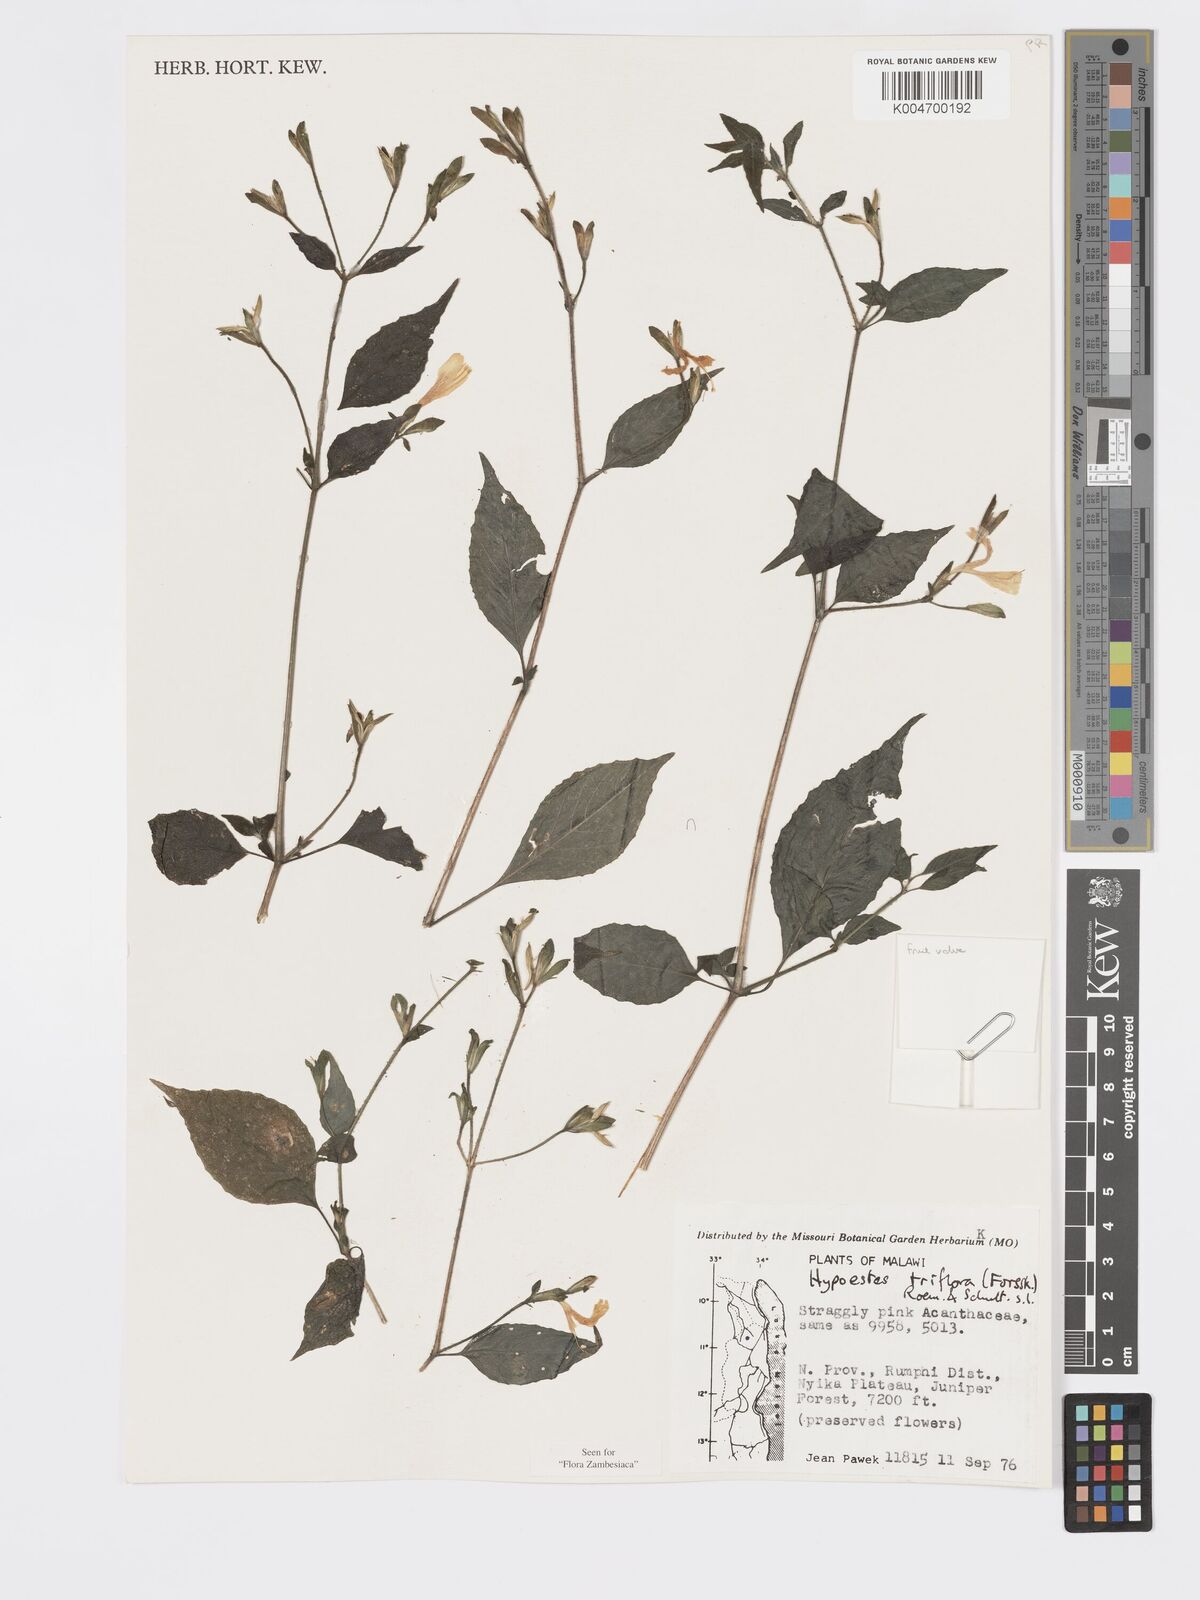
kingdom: Plantae
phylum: Tracheophyta
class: Magnoliopsida
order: Lamiales
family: Acanthaceae
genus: Hypoestes
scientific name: Hypoestes triflora
